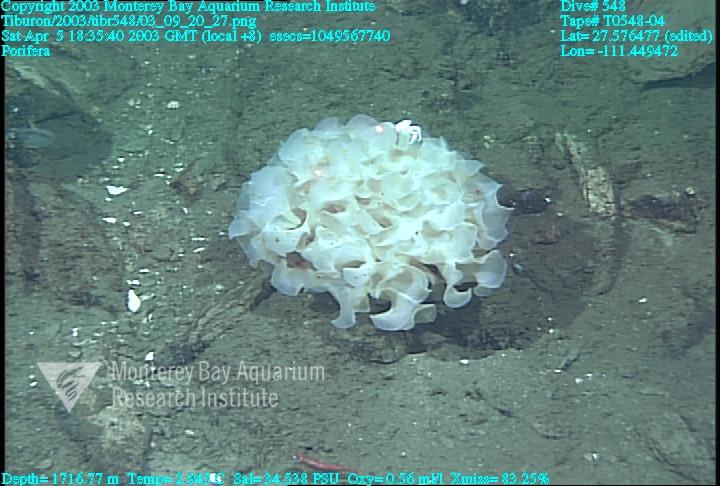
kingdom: Animalia
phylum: Porifera
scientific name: Porifera
